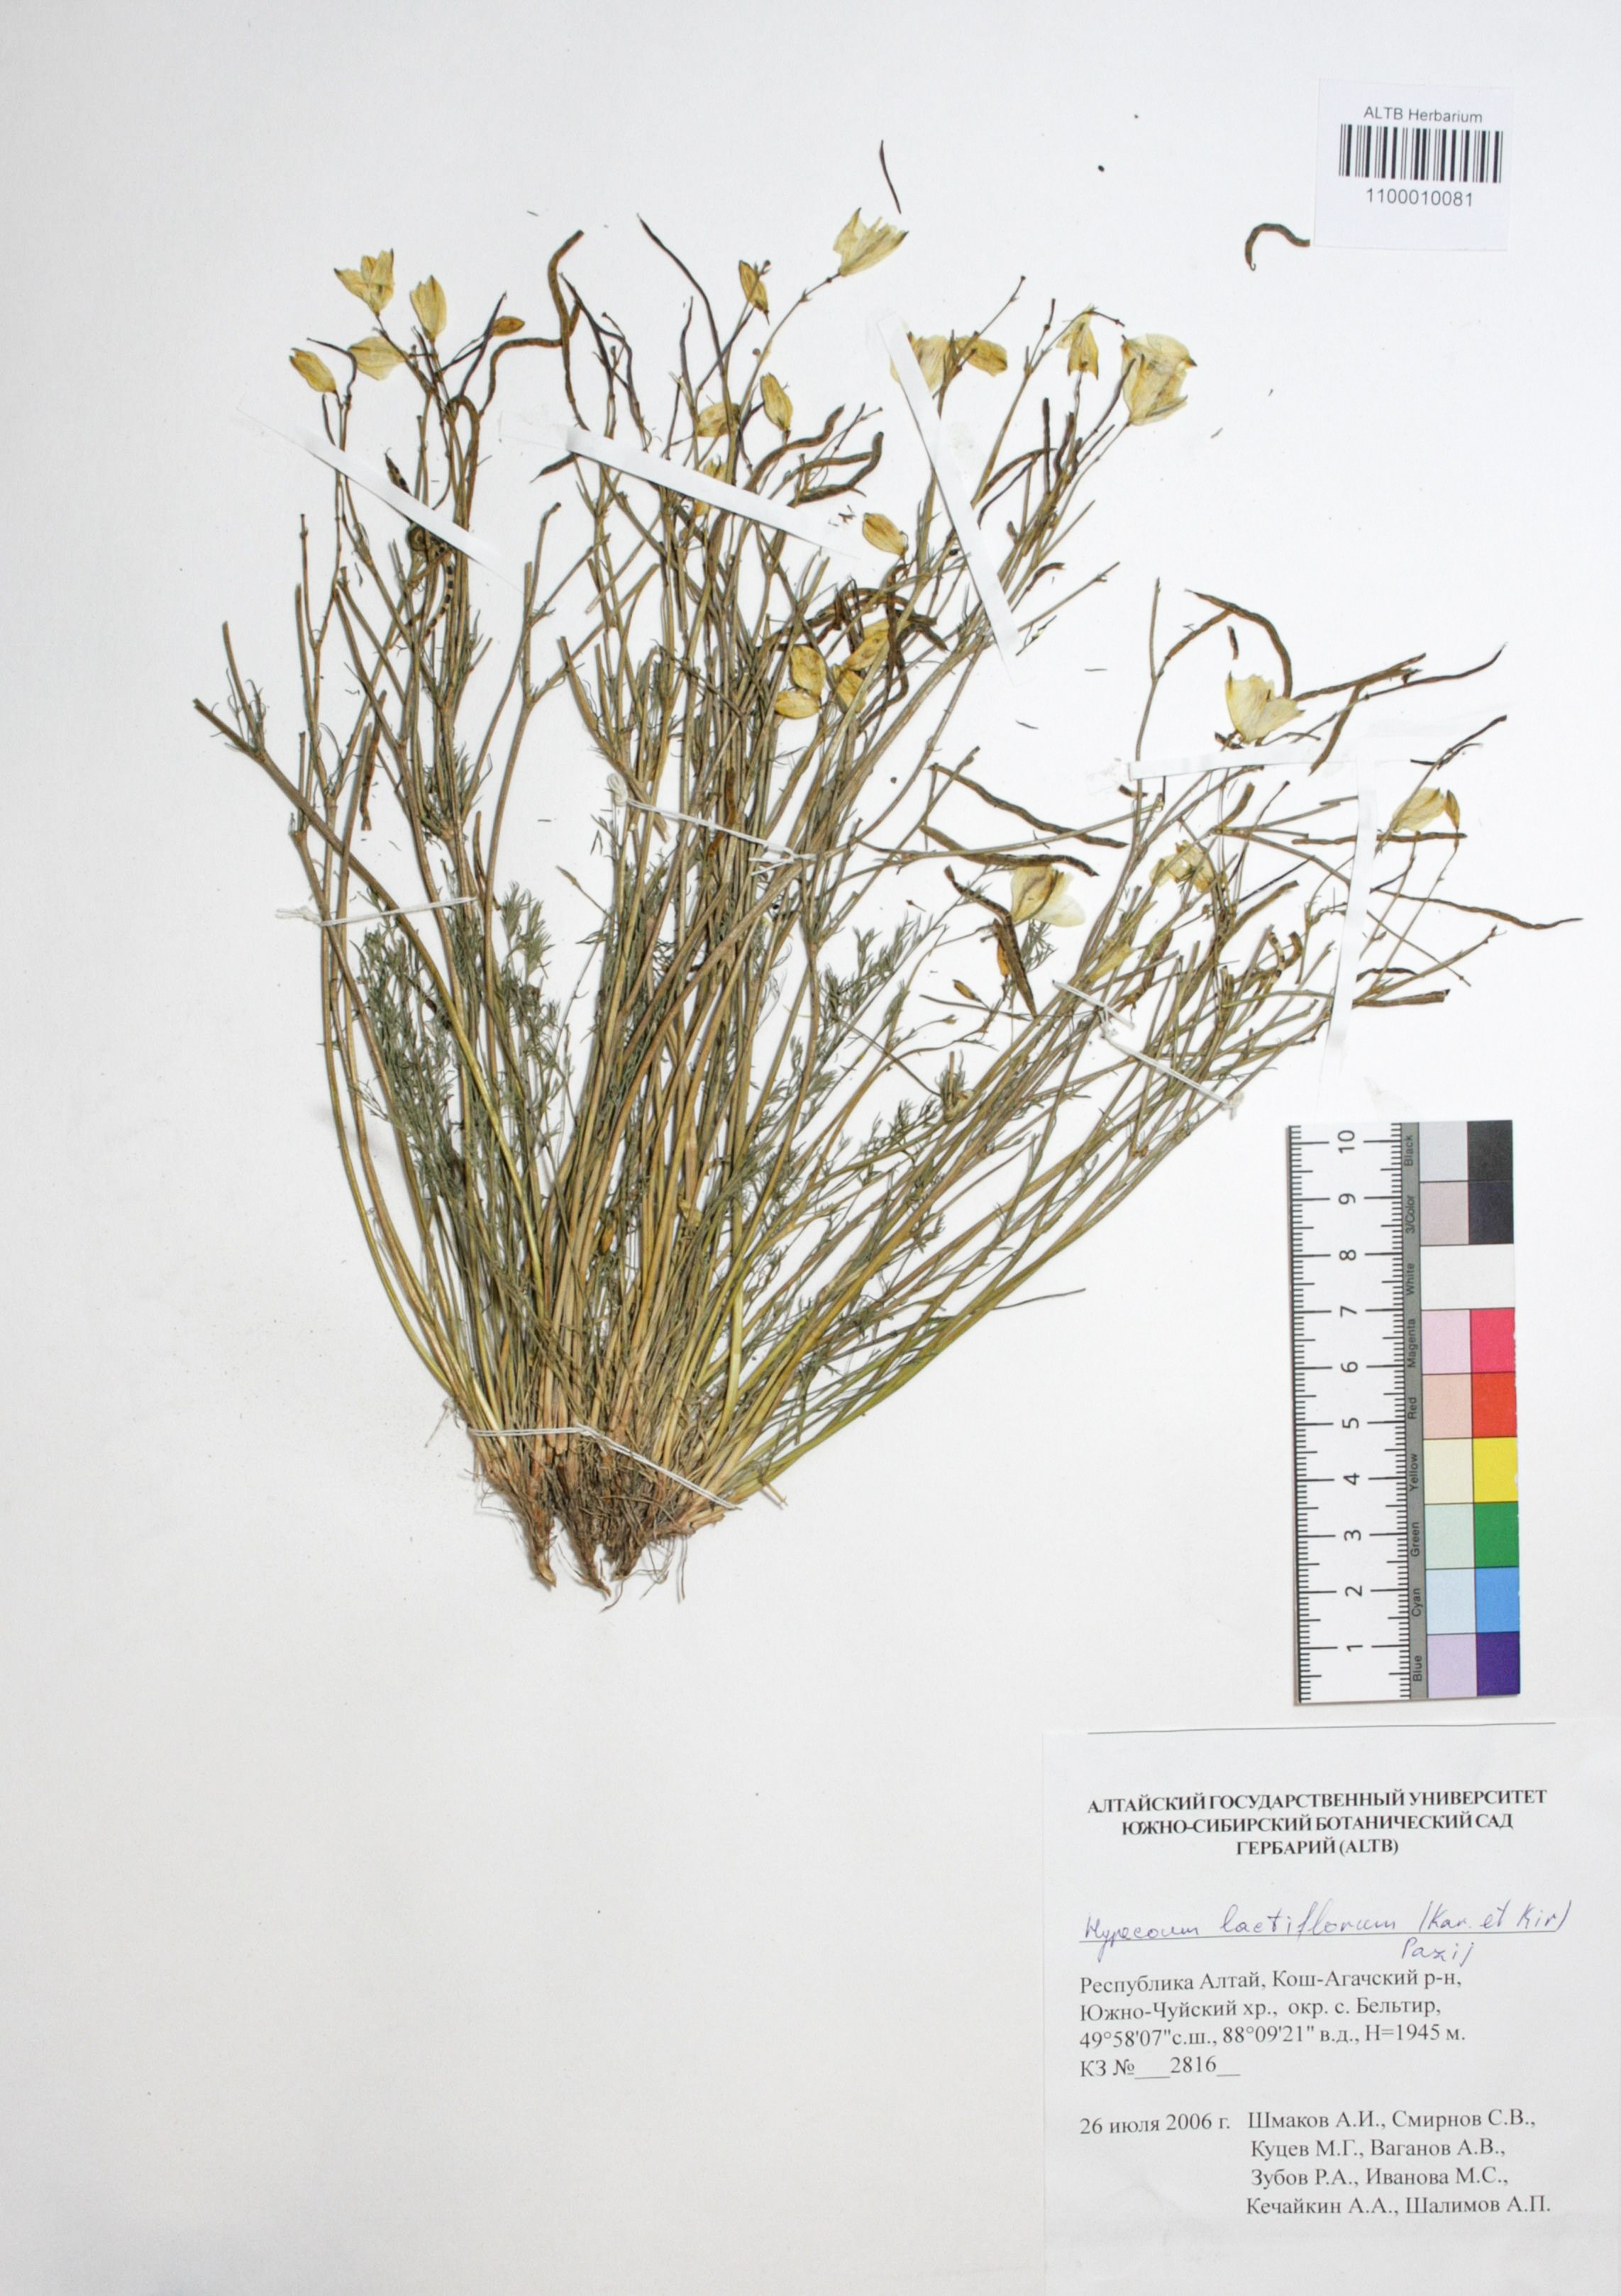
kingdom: Plantae
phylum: Tracheophyta
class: Magnoliopsida
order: Ranunculales
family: Papaveraceae
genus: Hypecoum
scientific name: Hypecoum lactiflorum
